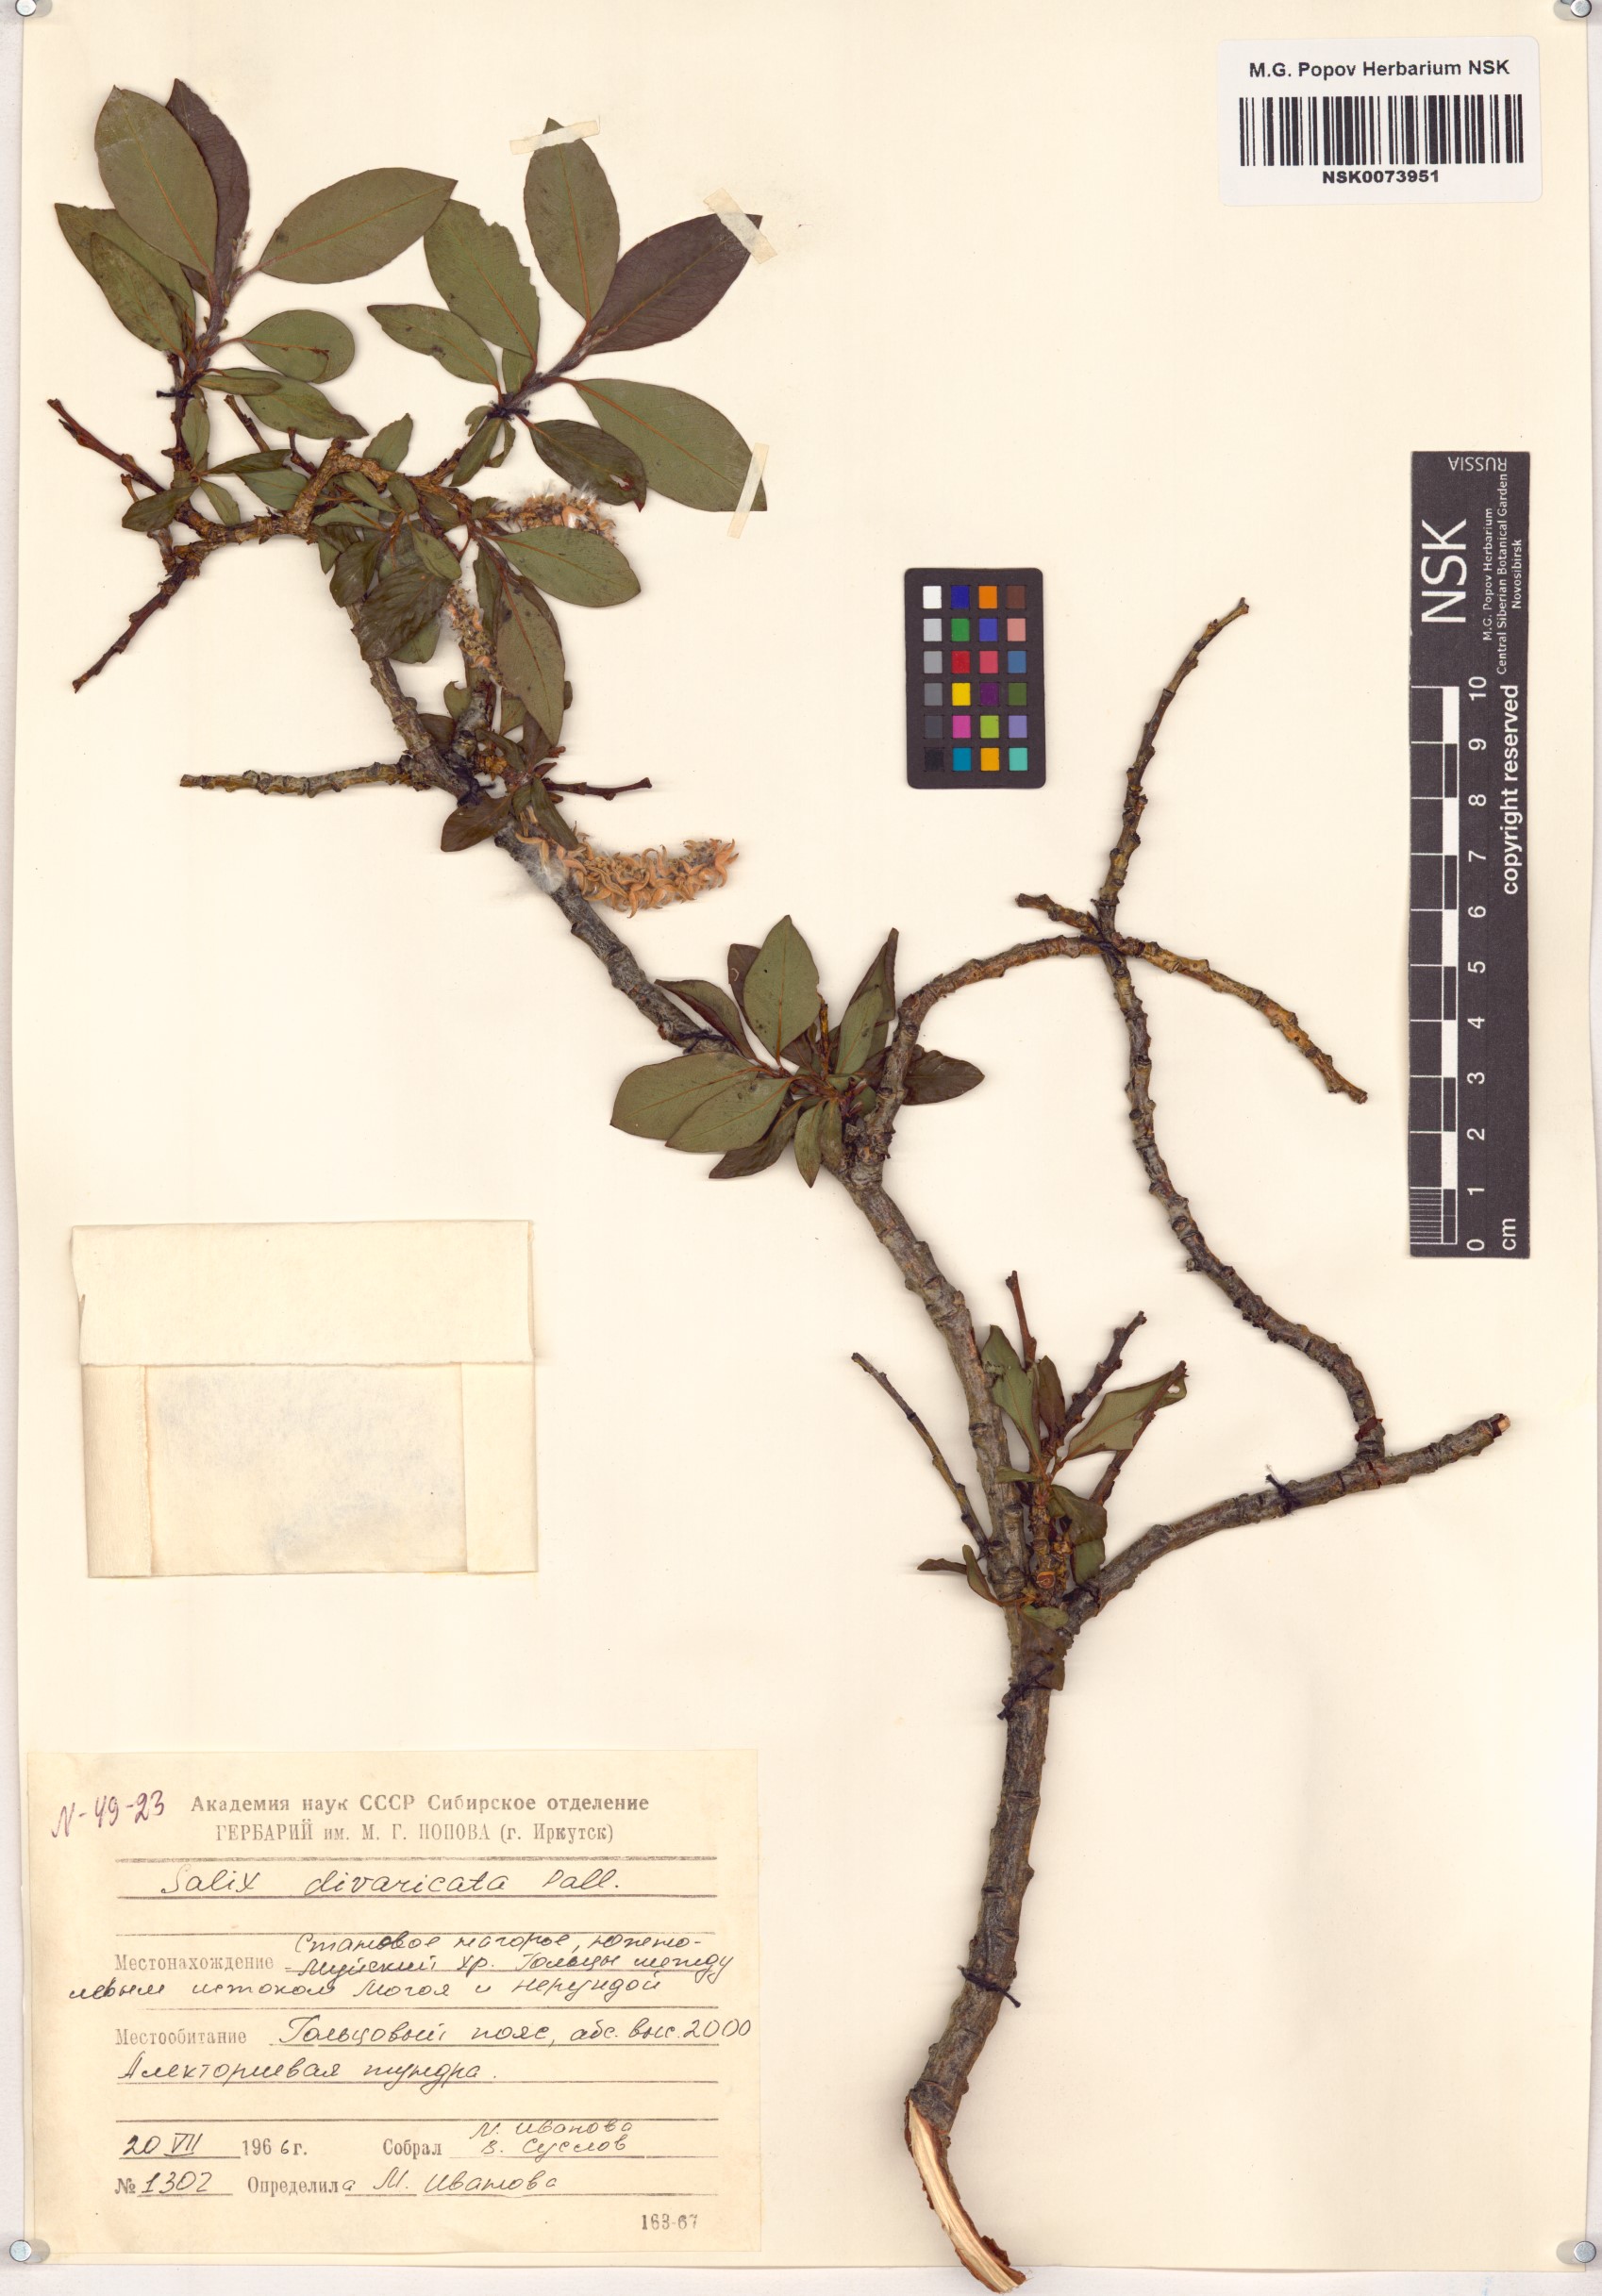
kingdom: Plantae
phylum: Tracheophyta
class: Magnoliopsida
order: Malpighiales
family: Salicaceae
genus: Salix
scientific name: Salix divaricata
